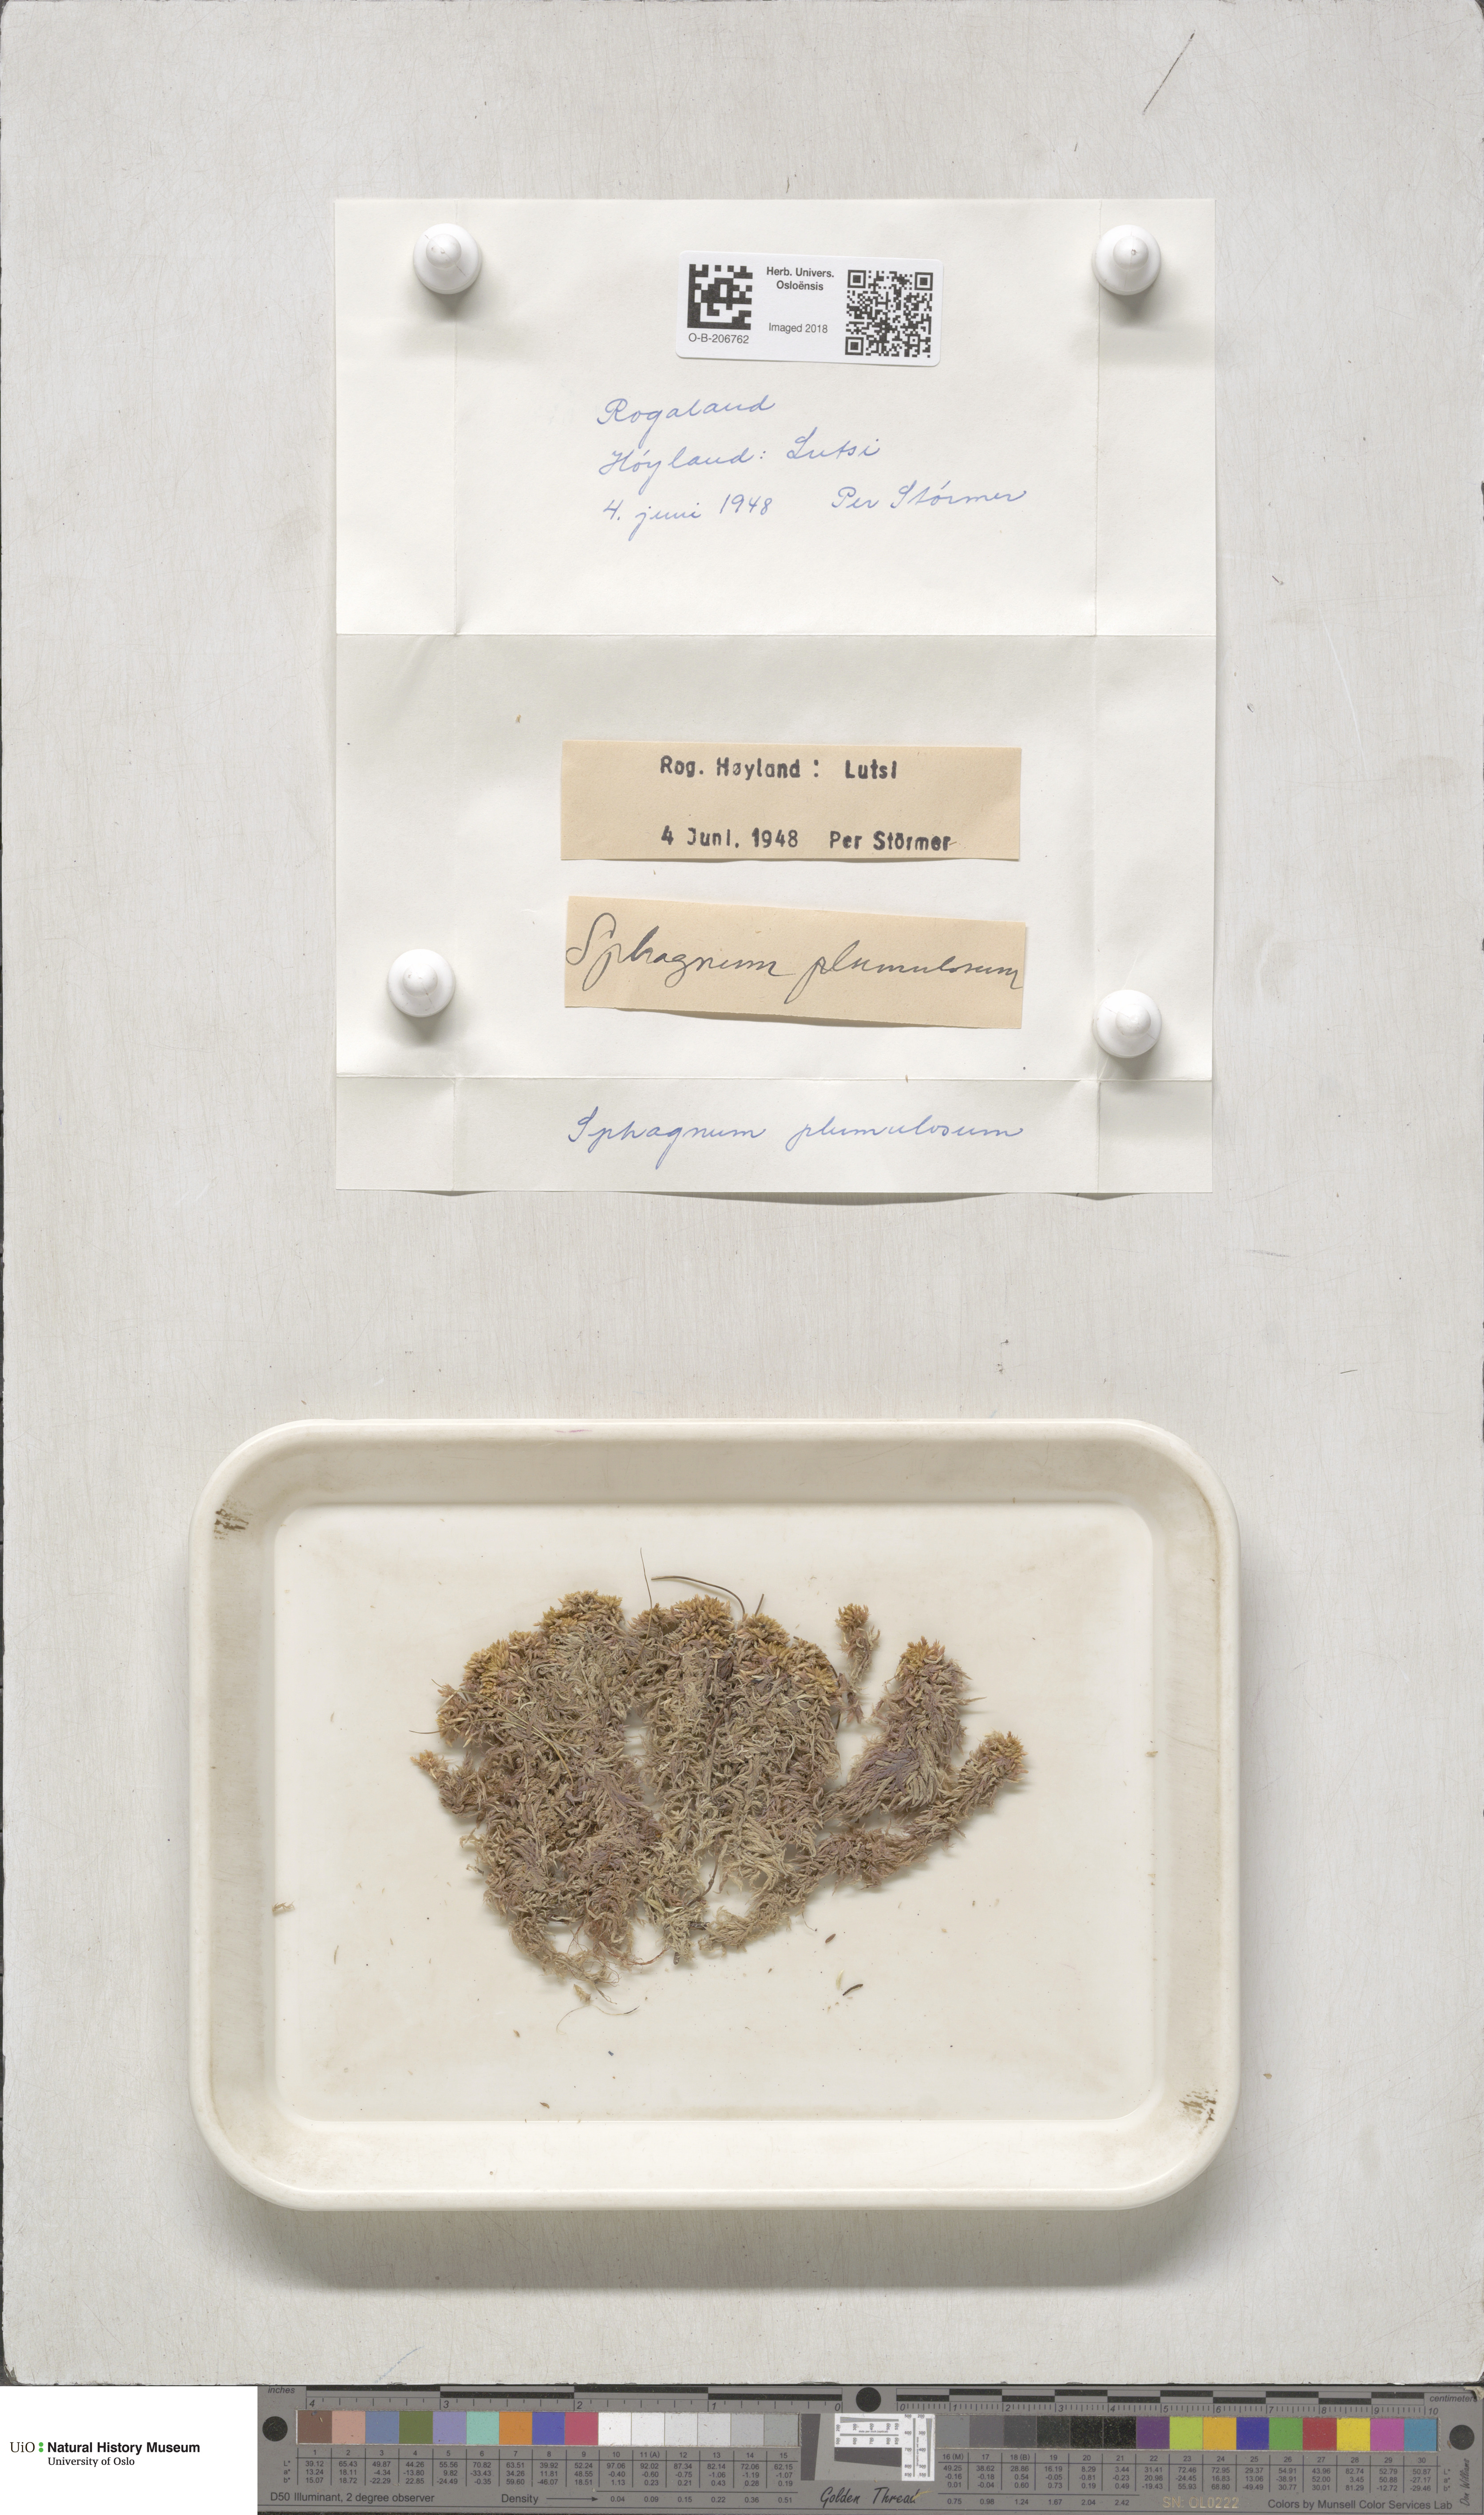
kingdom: Plantae
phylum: Bryophyta
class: Sphagnopsida
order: Sphagnales
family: Sphagnaceae
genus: Sphagnum
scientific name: Sphagnum subnitens
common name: Lustrous bog-moss
